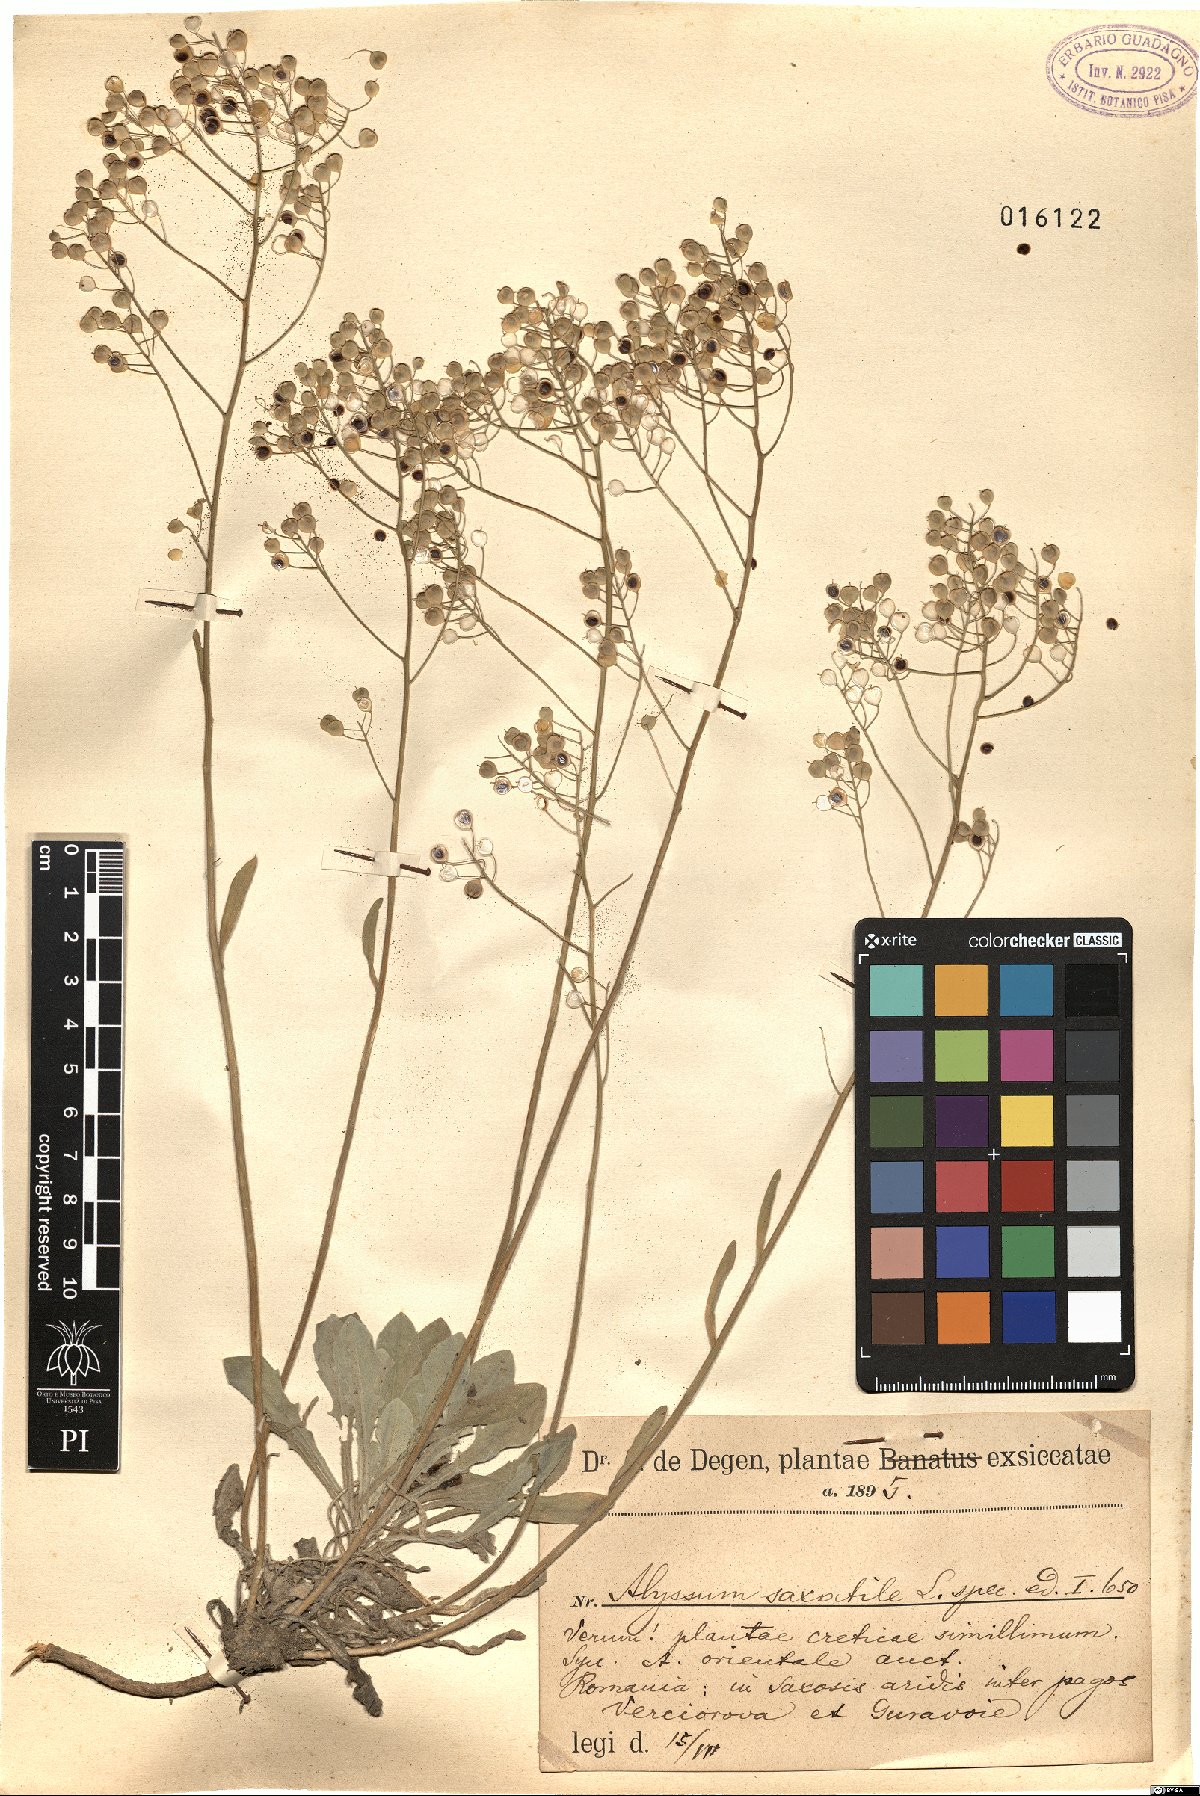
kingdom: Plantae
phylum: Tracheophyta
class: Magnoliopsida
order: Brassicales
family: Brassicaceae
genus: Aurinia
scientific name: Aurinia saxatilis
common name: Golden-tuft alyssum
